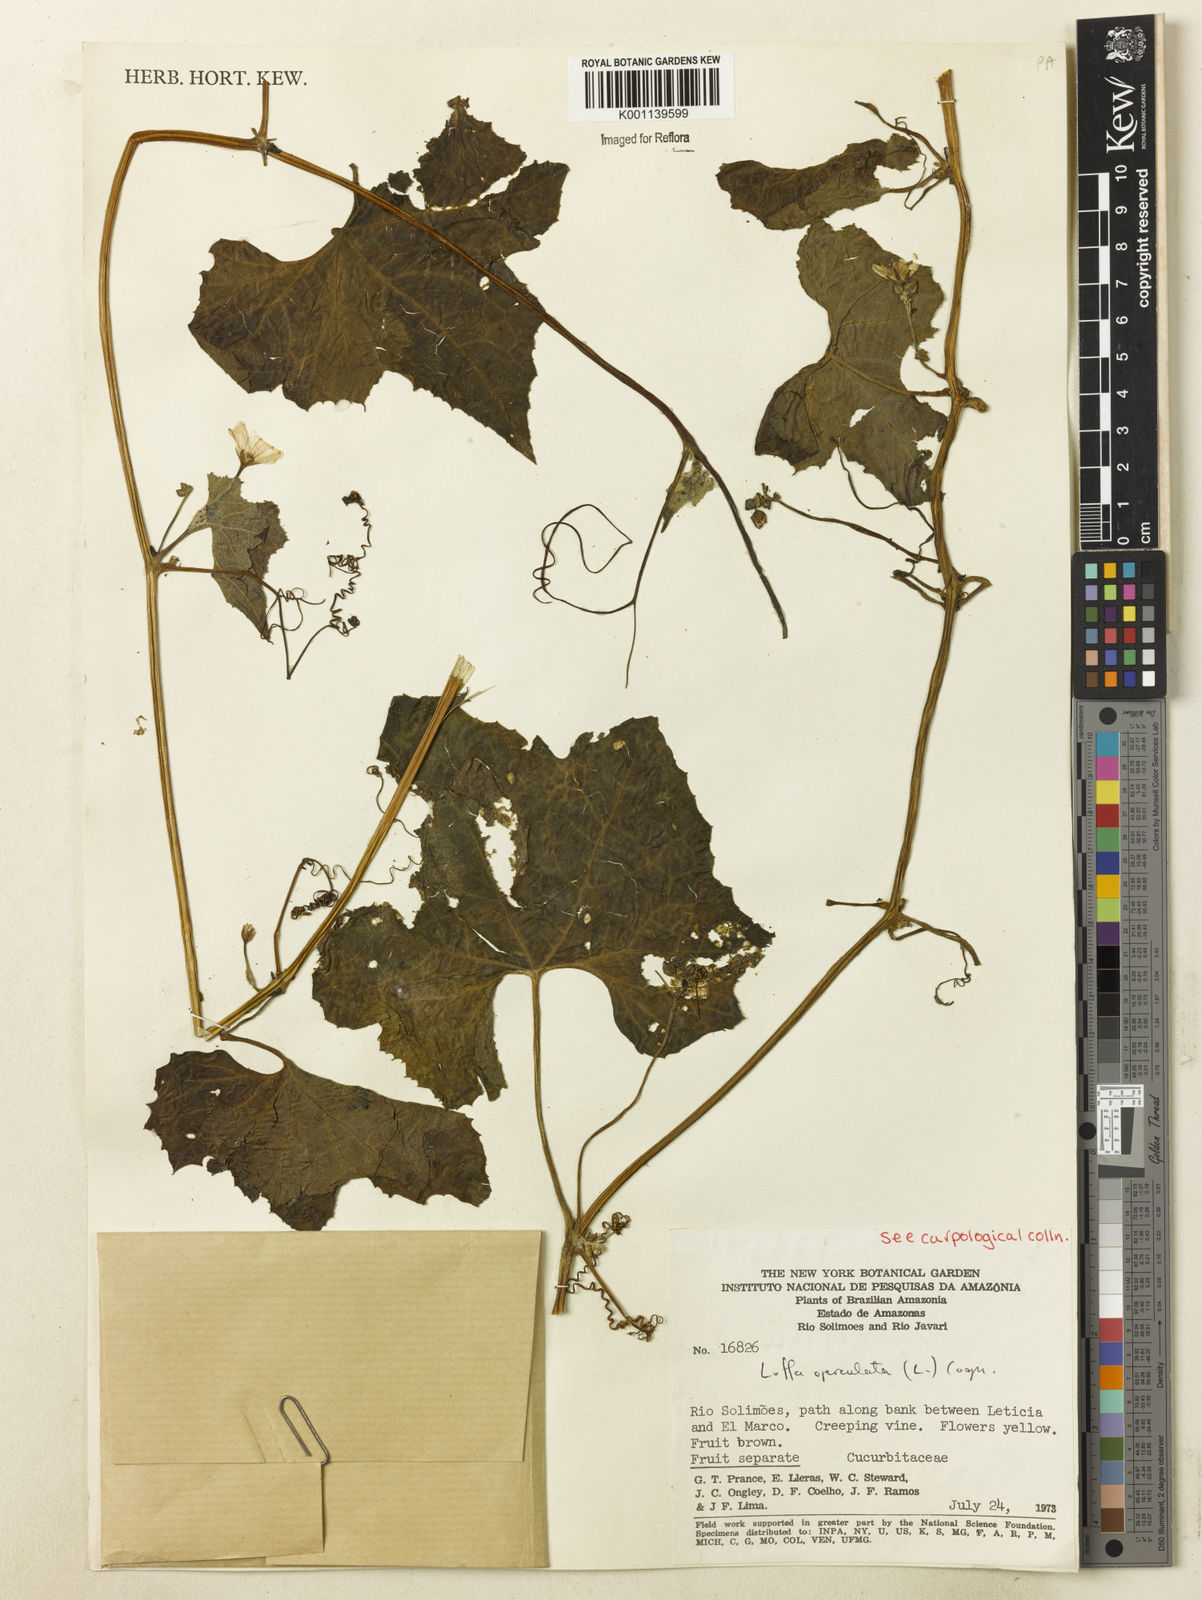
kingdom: Plantae
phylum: Tracheophyta
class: Magnoliopsida
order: Cucurbitales
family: Cucurbitaceae
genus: Luffa
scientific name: Luffa operculata
